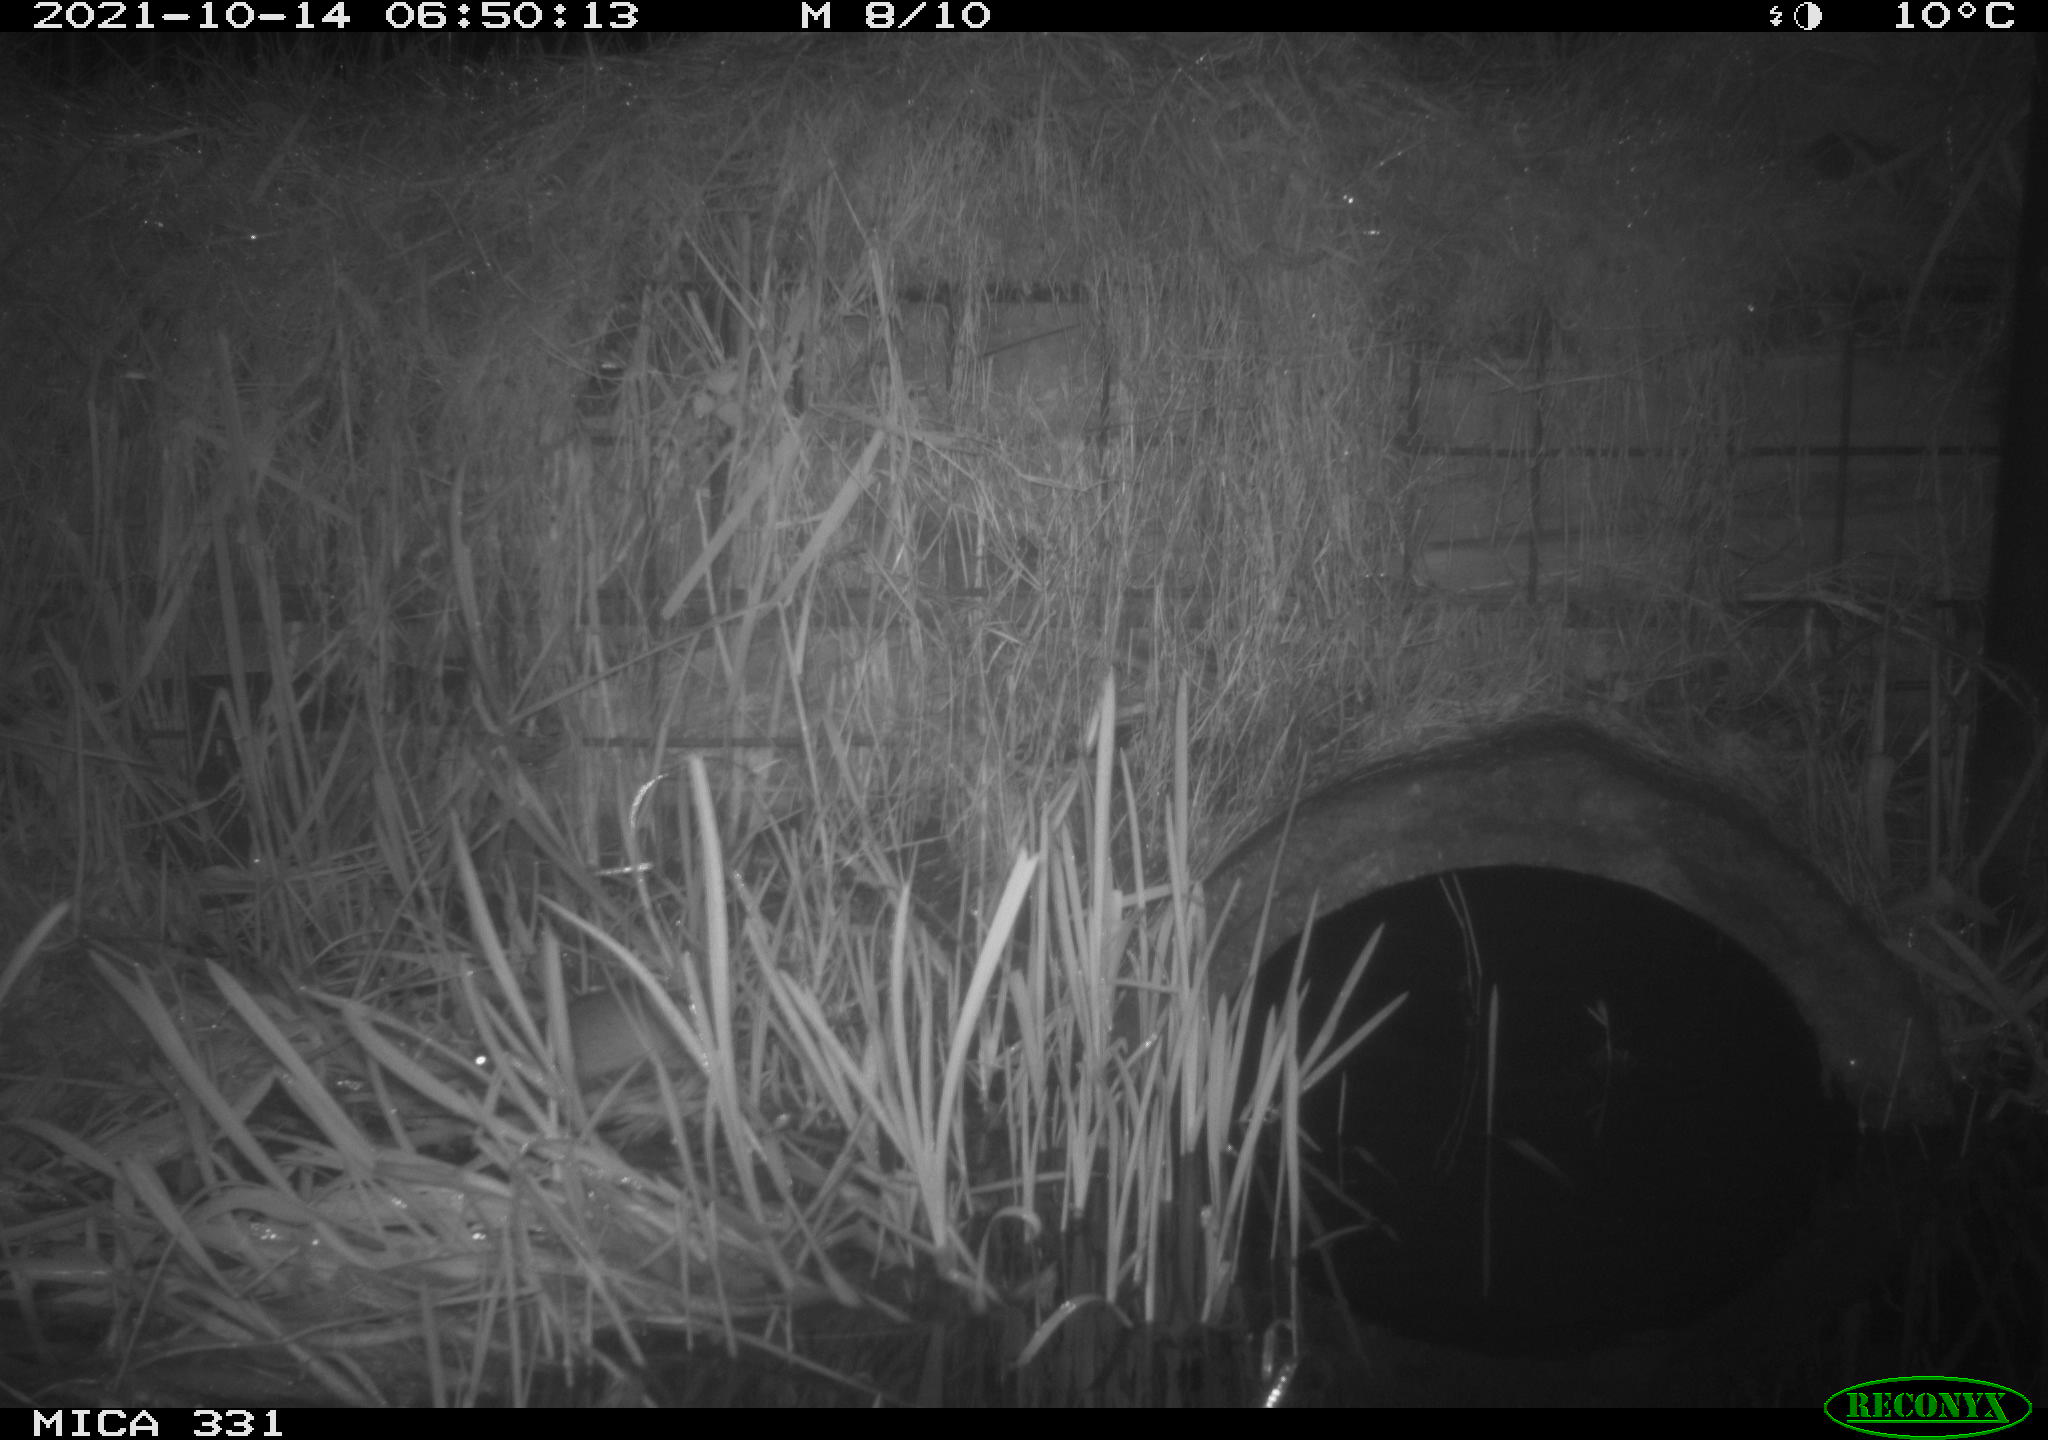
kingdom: Animalia
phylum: Chordata
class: Mammalia
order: Rodentia
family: Muridae
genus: Rattus
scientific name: Rattus norvegicus
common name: Brown rat
